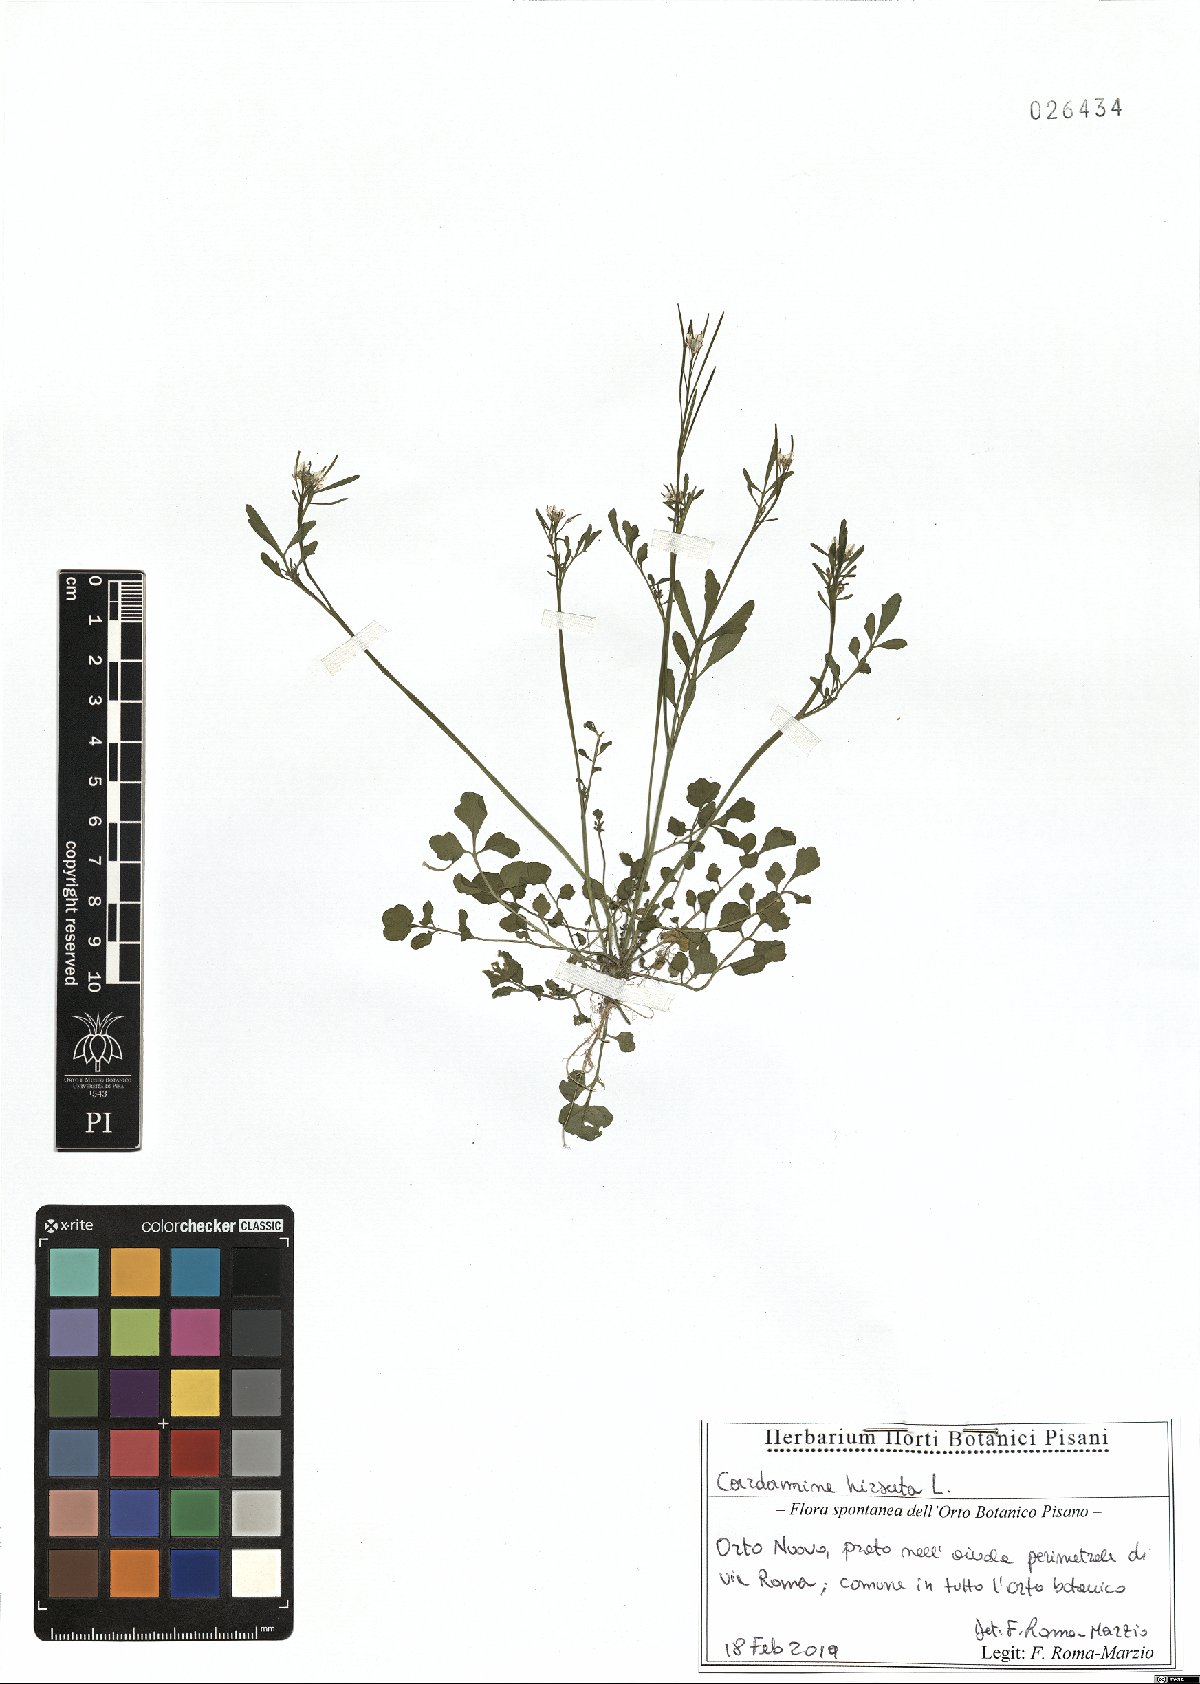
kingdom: Plantae
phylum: Tracheophyta
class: Magnoliopsida
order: Brassicales
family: Brassicaceae
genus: Cardamine
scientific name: Cardamine hirsuta
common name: Hairy bittercress
